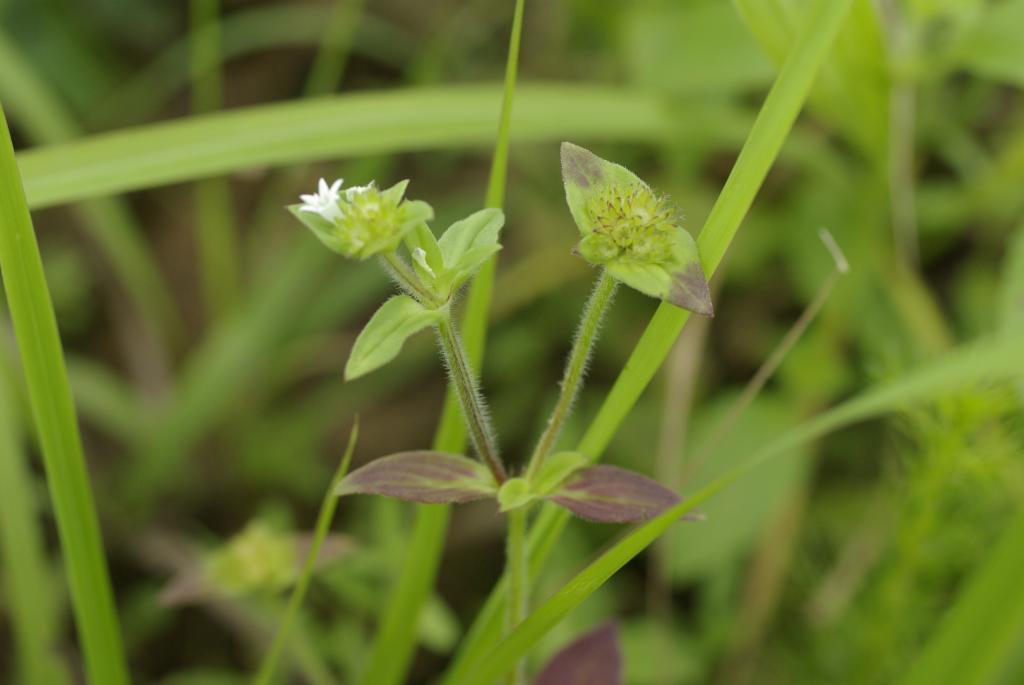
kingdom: Plantae
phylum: Tracheophyta
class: Magnoliopsida
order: Gentianales
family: Rubiaceae
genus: Richardia
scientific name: Richardia scabra
